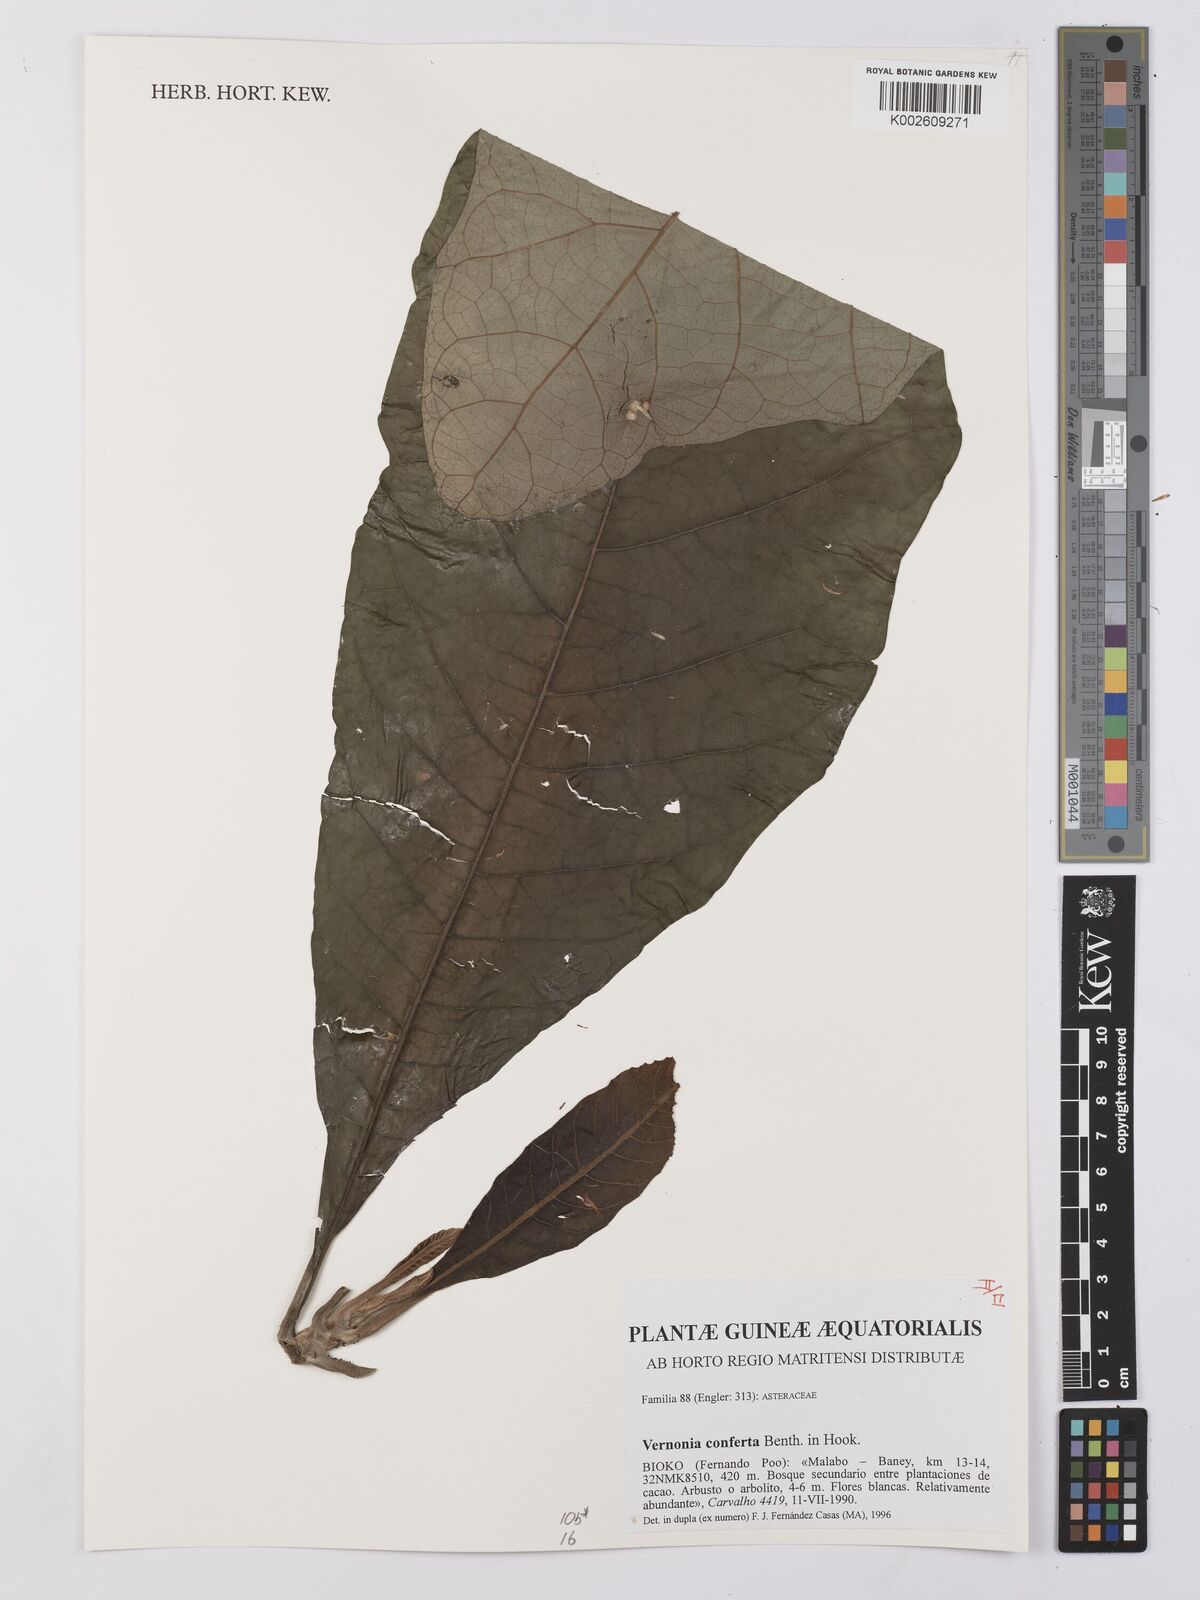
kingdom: Plantae
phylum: Tracheophyta
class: Magnoliopsida
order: Asterales
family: Asteraceae
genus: Monosis
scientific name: Monosis conferta
